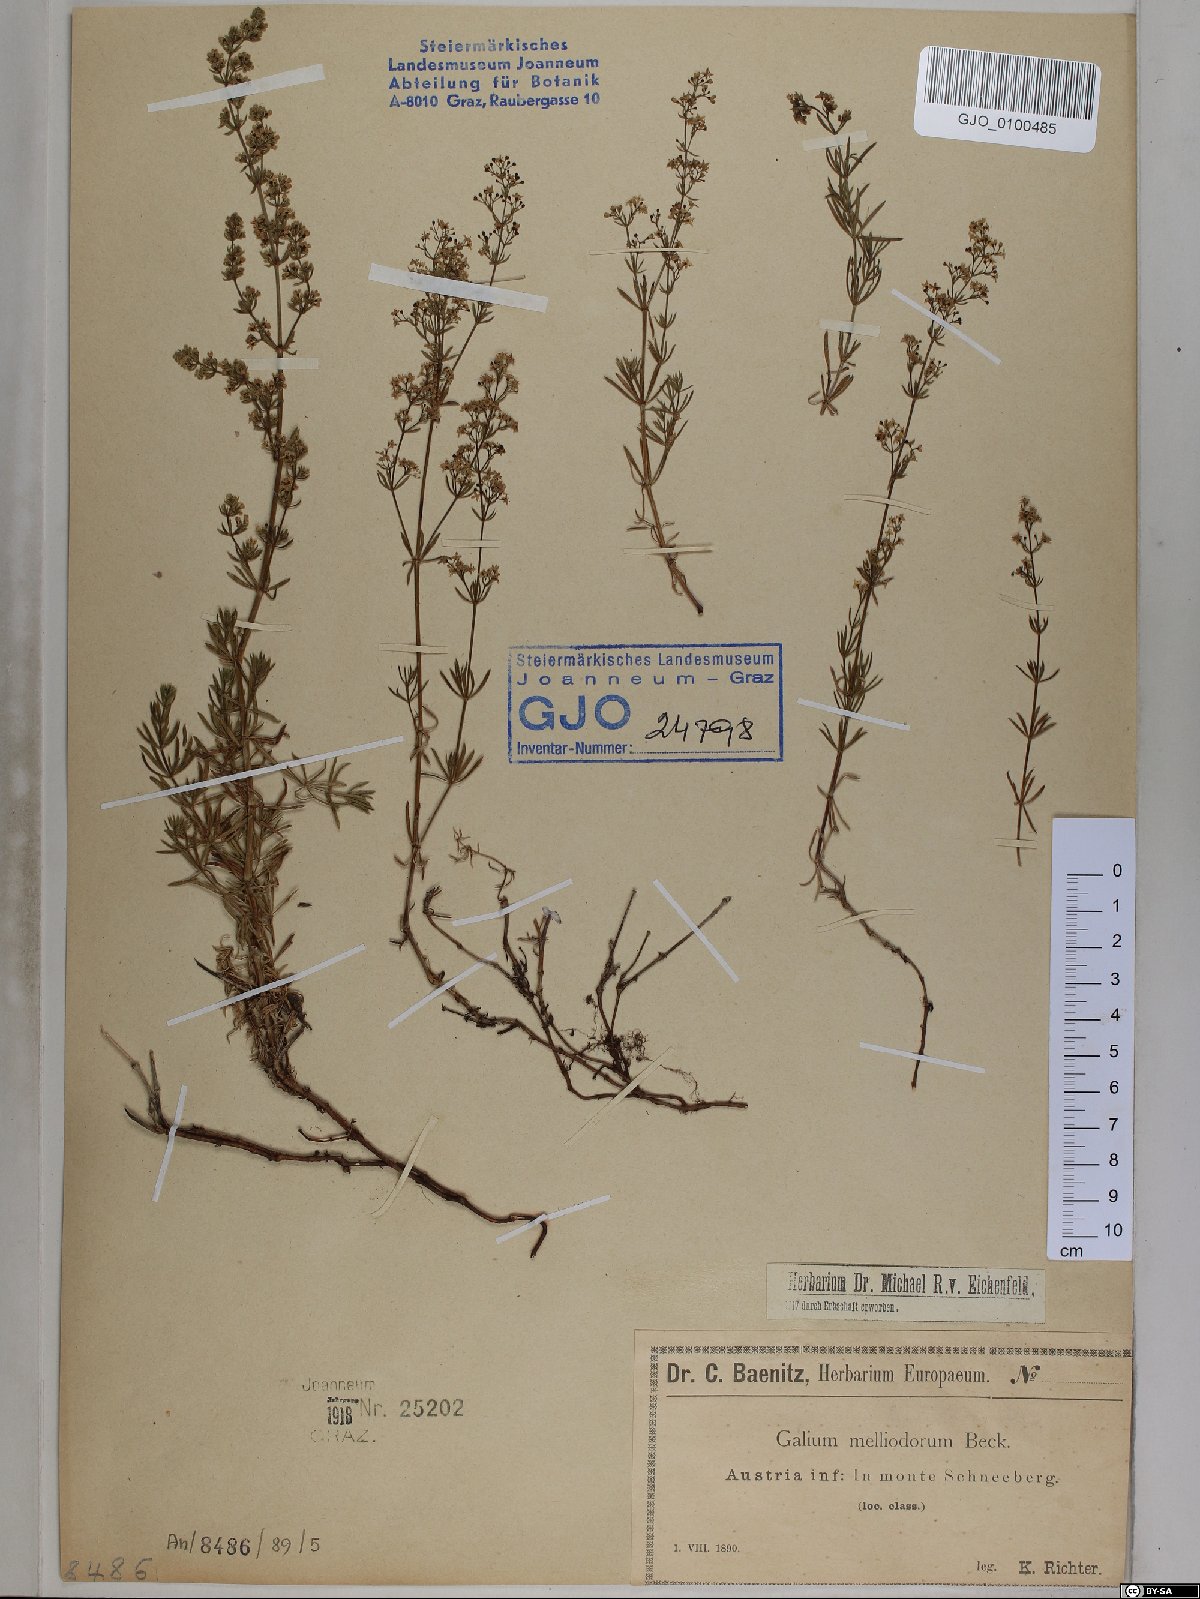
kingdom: Plantae
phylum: Tracheophyta
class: Magnoliopsida
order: Gentianales
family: Rubiaceae
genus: Galium
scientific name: Galium meliodorum
